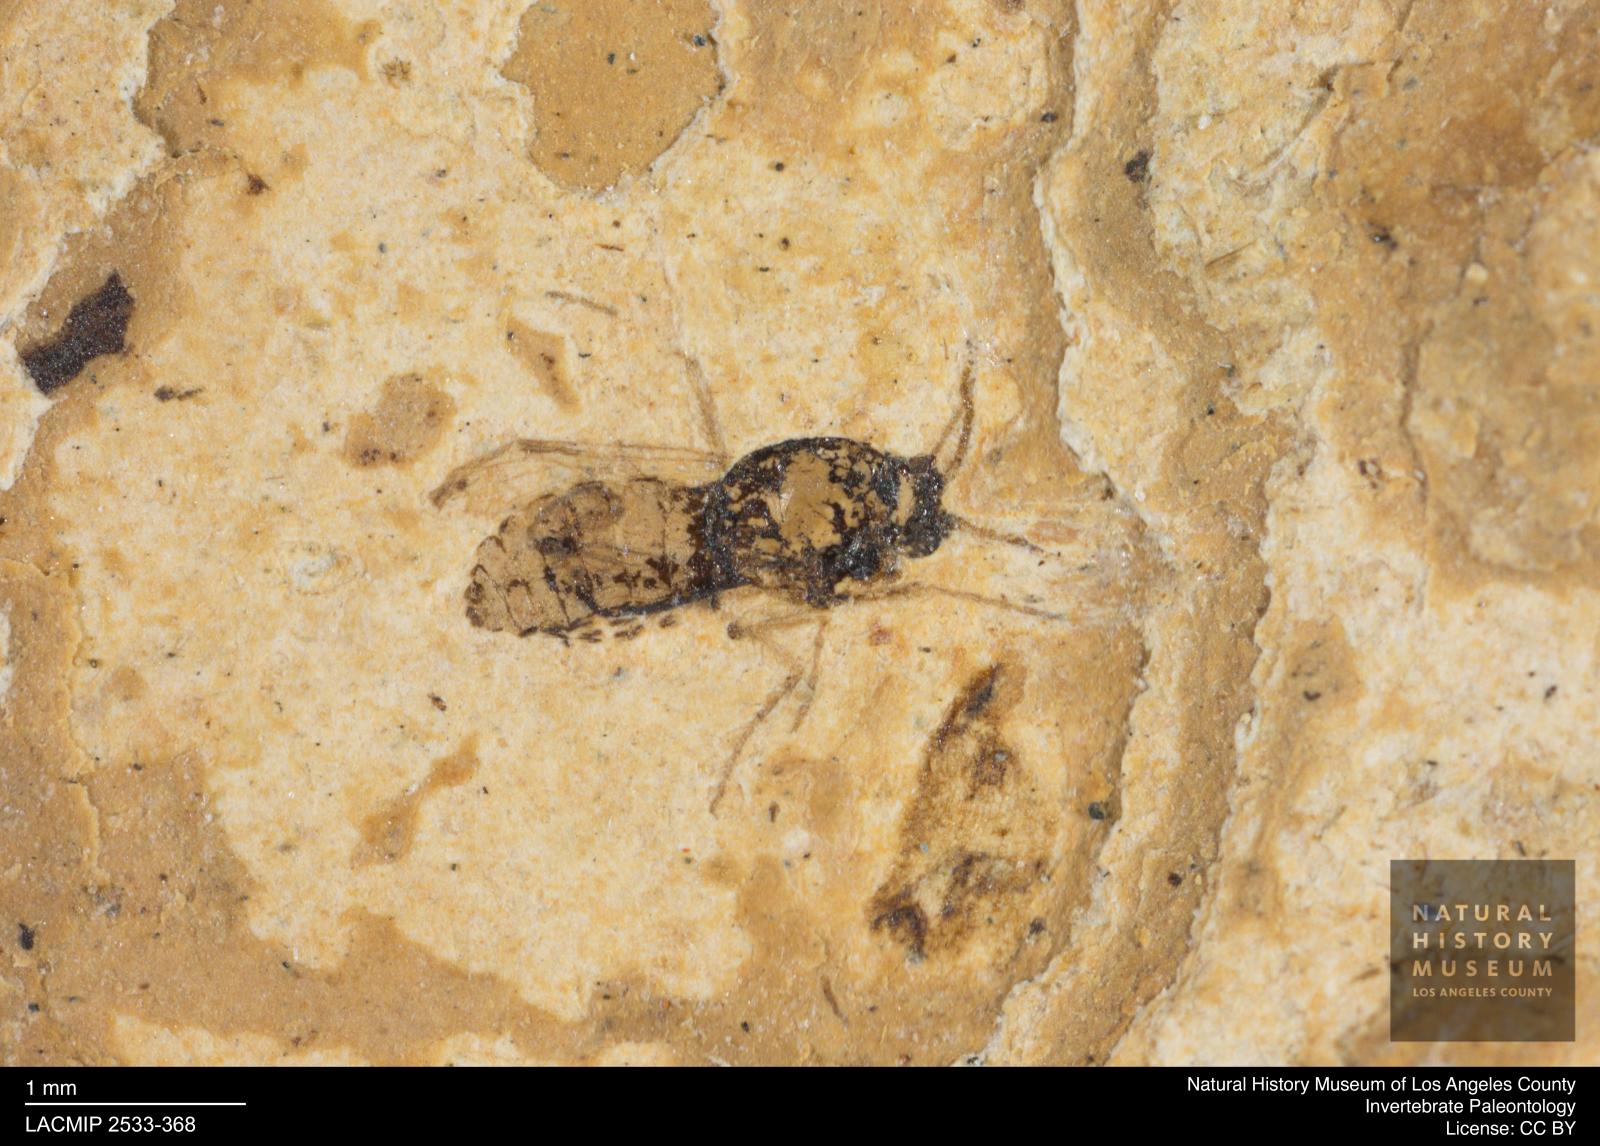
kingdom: Animalia
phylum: Arthropoda
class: Insecta
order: Diptera
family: Ceratopogonidae
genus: Culicoides
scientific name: Culicoides elongatulus
